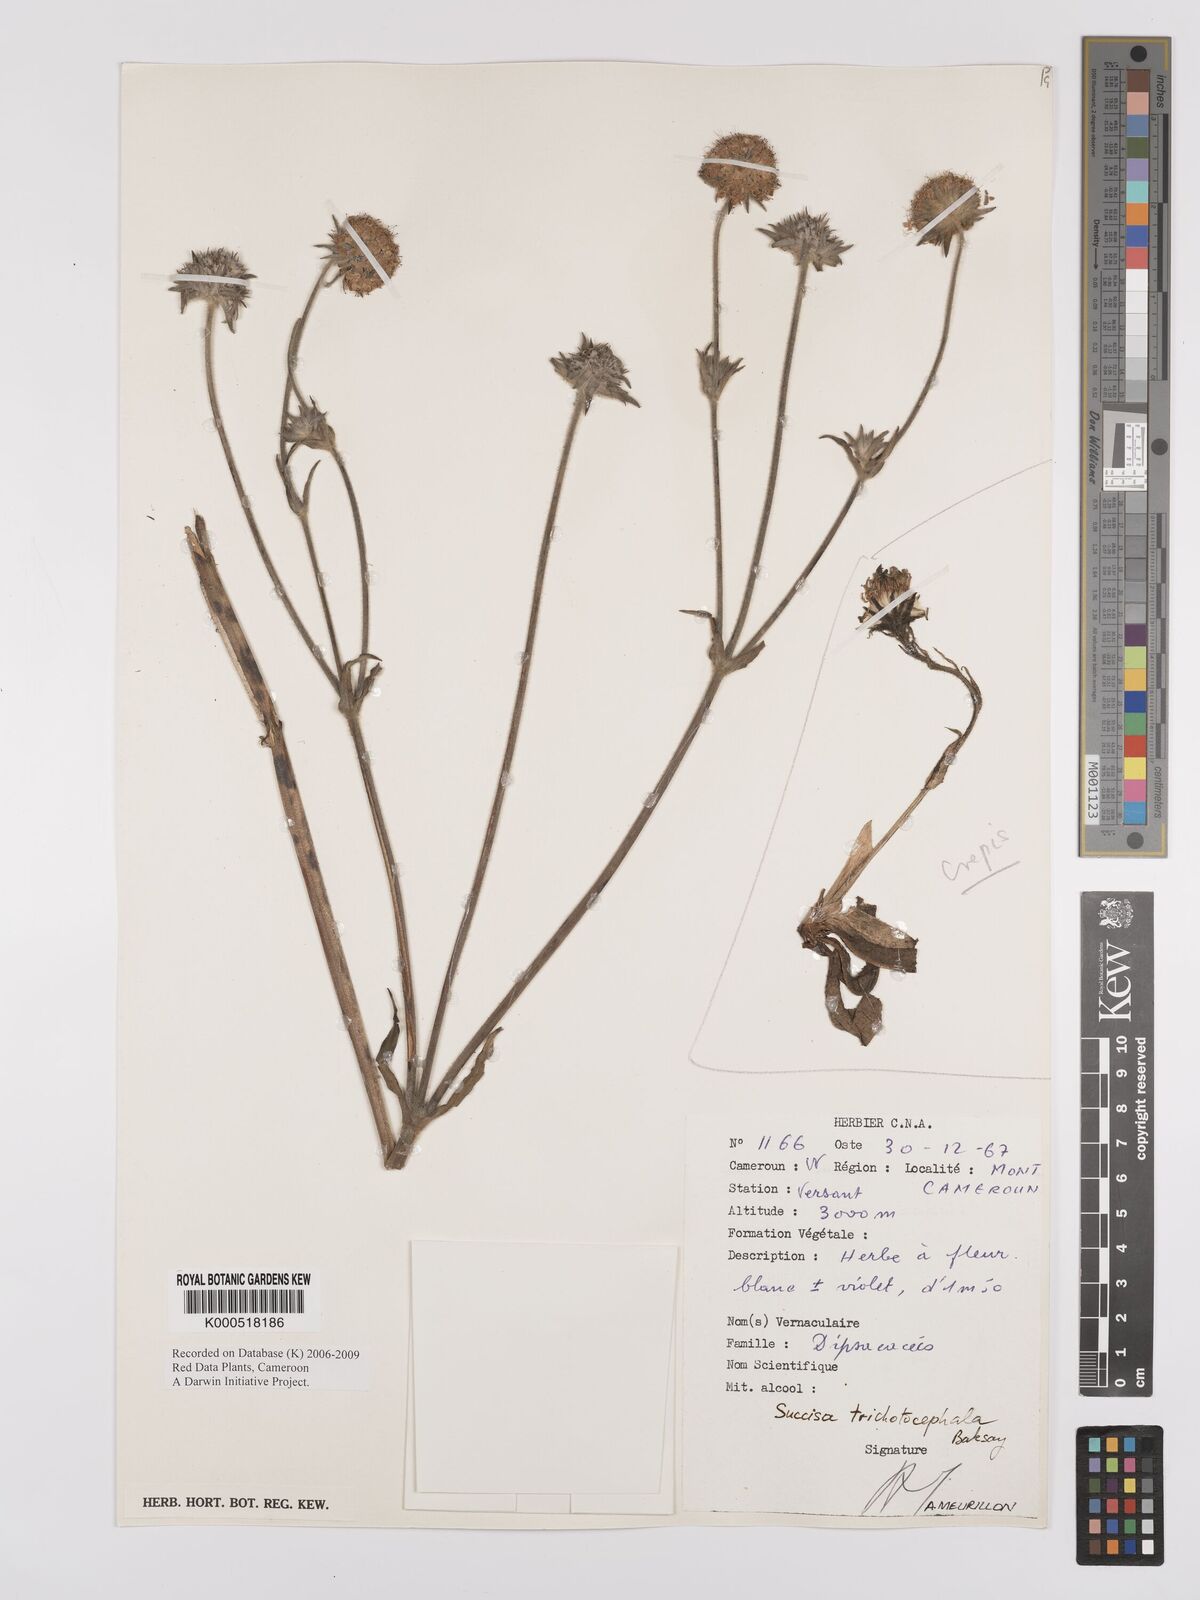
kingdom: Plantae
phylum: Tracheophyta
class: Magnoliopsida
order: Dipsacales
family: Caprifoliaceae
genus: Succisa
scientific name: Succisa trichotocephala
